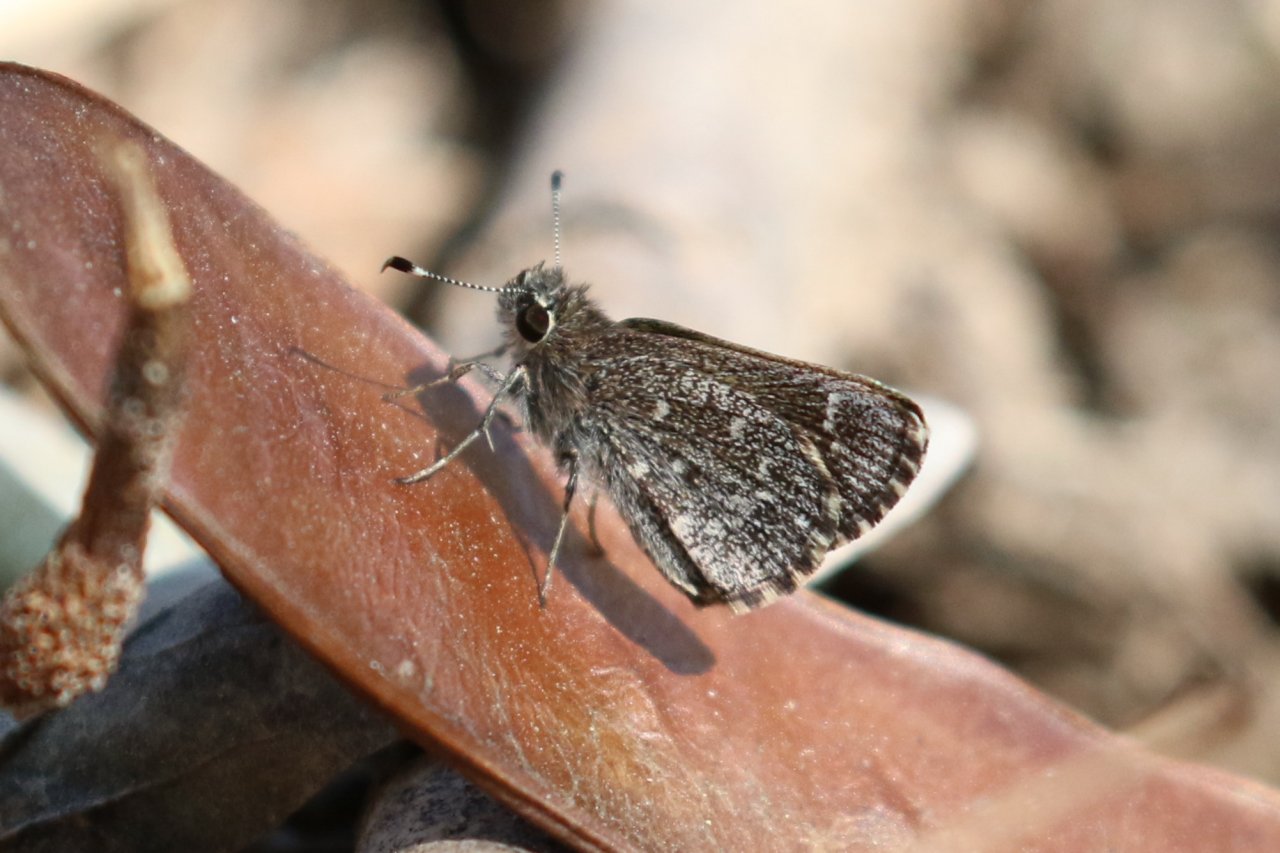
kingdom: Animalia
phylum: Arthropoda
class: Insecta
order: Lepidoptera
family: Hesperiidae
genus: Mastor
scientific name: Mastor celia
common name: Celia's Roadside-Skipper
